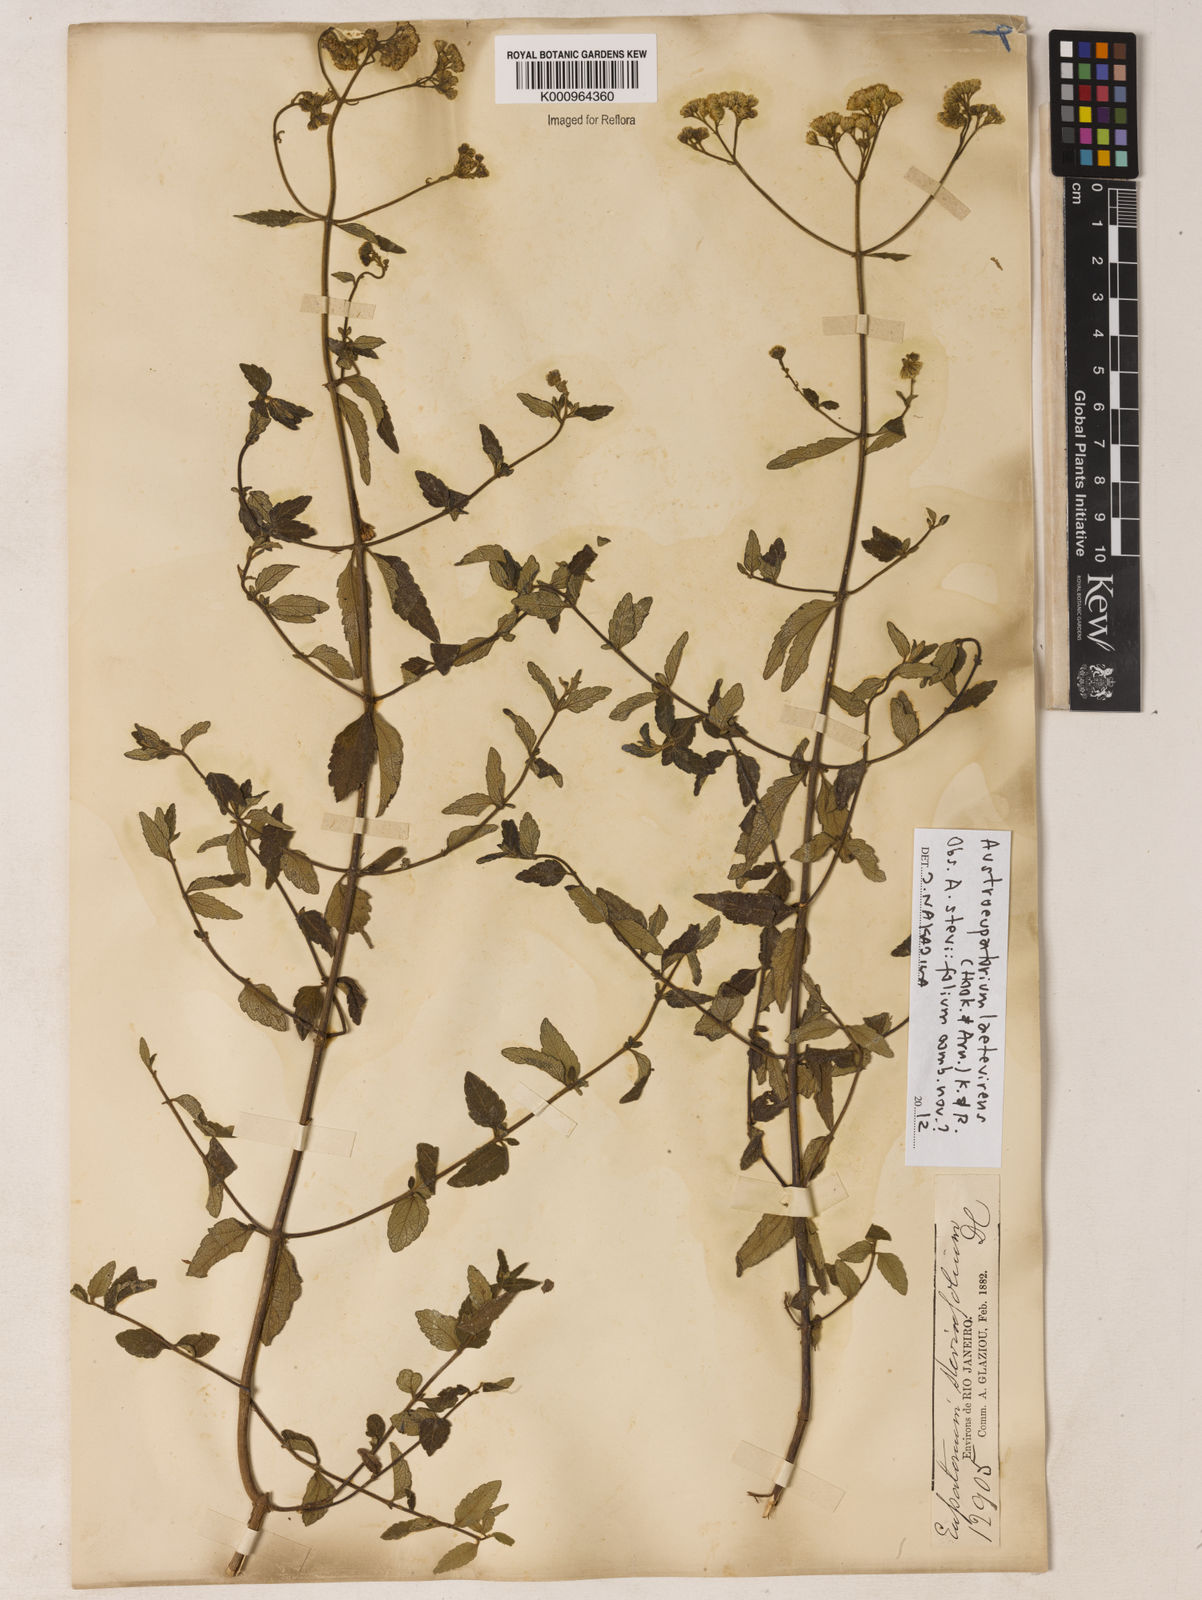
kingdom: Plantae
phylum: Tracheophyta
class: Magnoliopsida
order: Asterales
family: Asteraceae
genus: Austroeupatorium
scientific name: Austroeupatorium laetevirens
